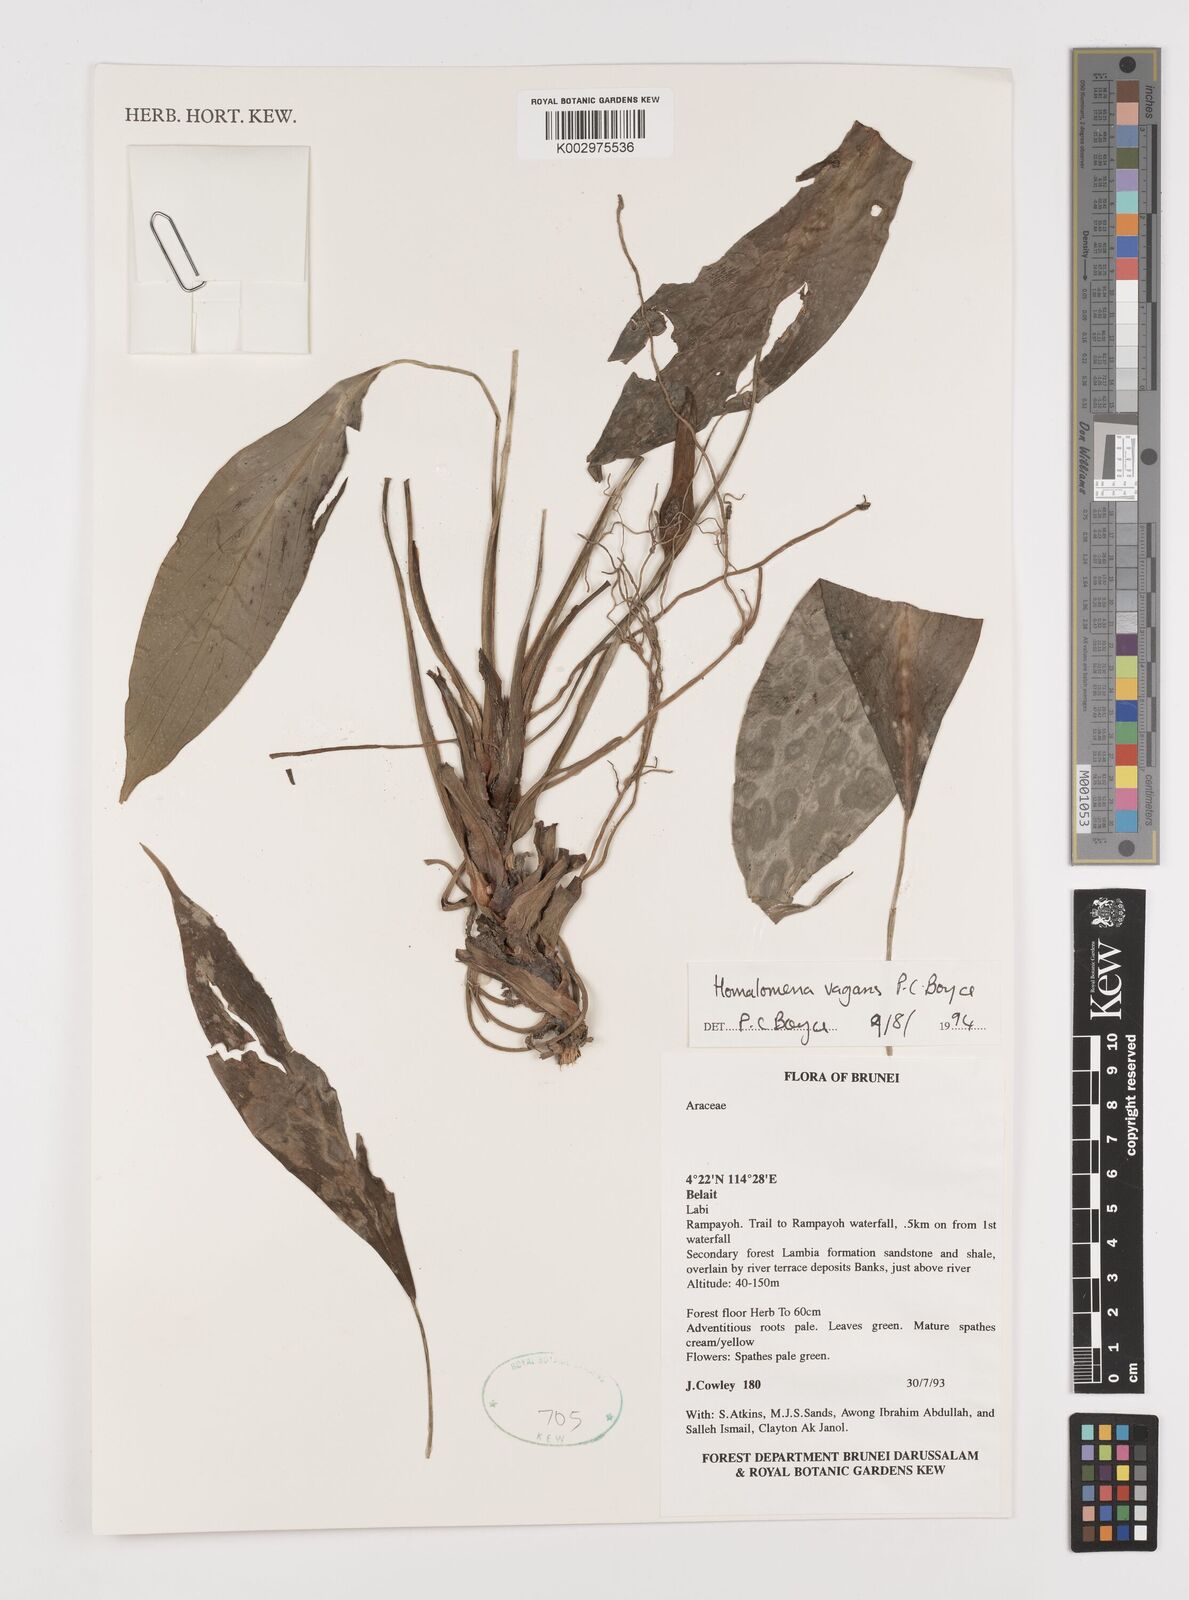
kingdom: Plantae
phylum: Tracheophyta
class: Liliopsida
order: Alismatales
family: Araceae
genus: Homalomena
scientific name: Homalomena vagans
